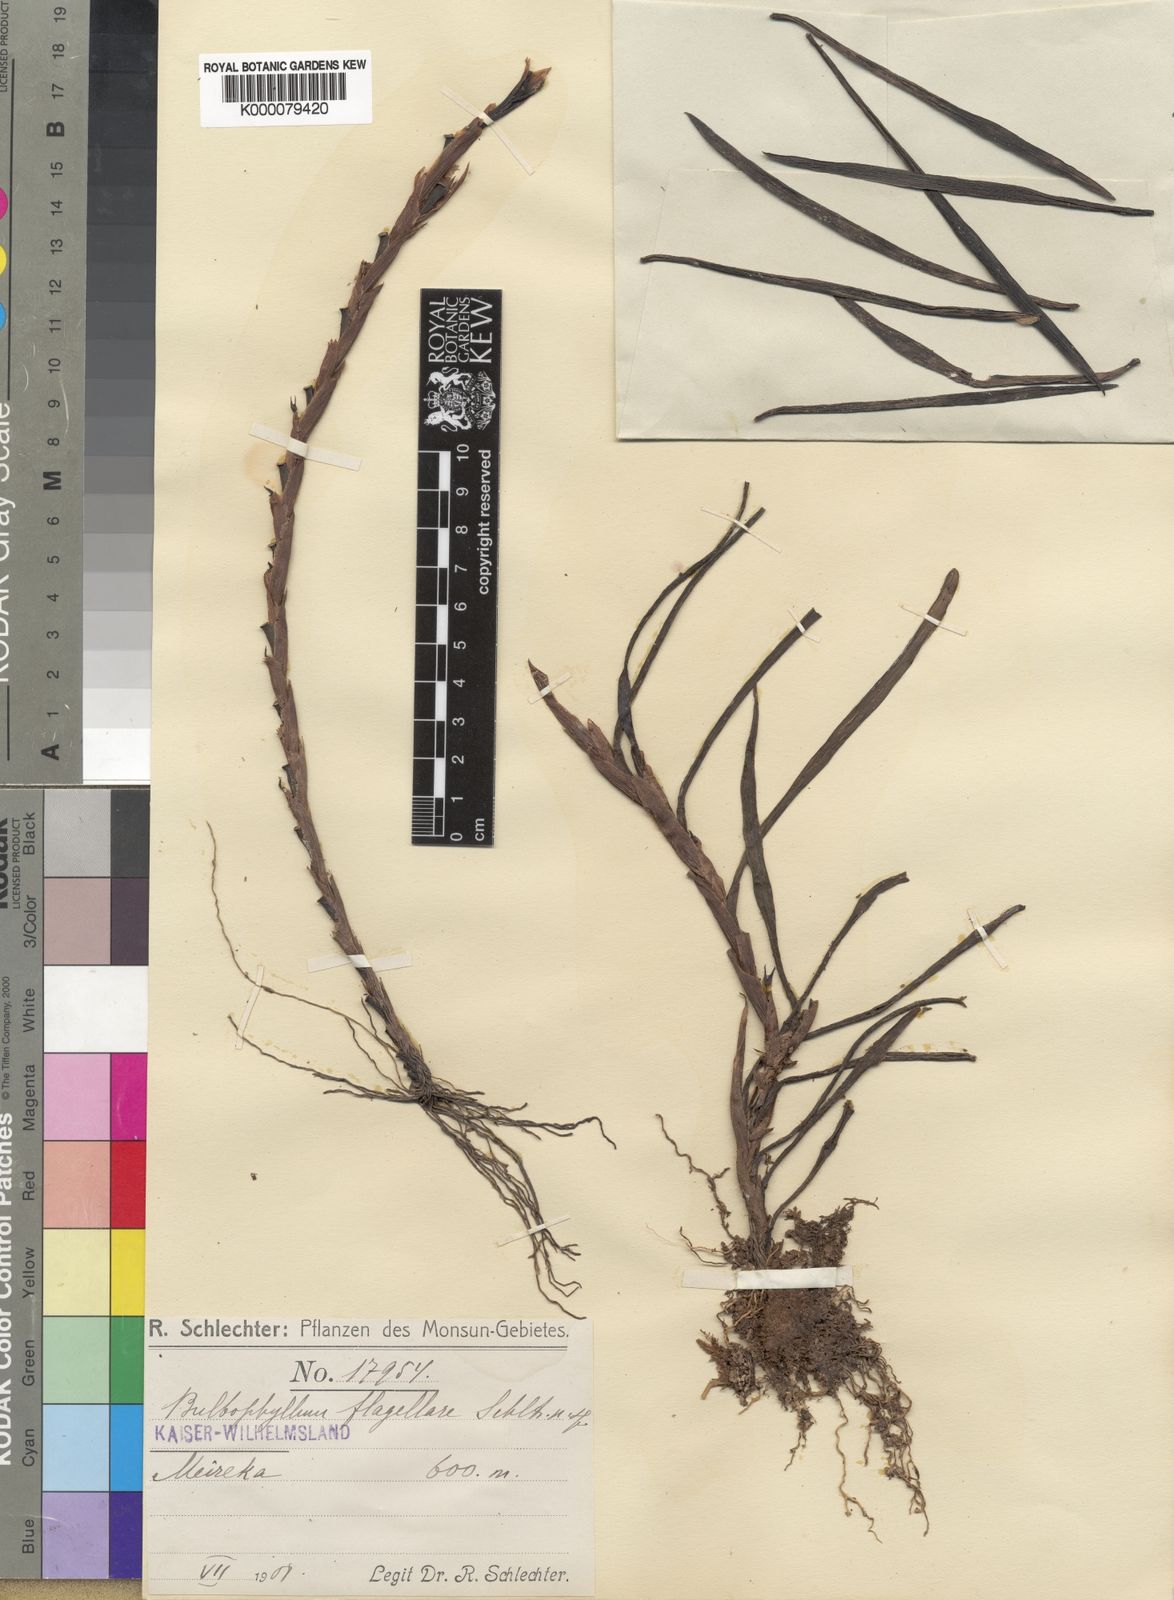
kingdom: Plantae
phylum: Tracheophyta
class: Liliopsida
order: Asparagales
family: Orchidaceae
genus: Bulbophyllum
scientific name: Bulbophyllum flagellare
